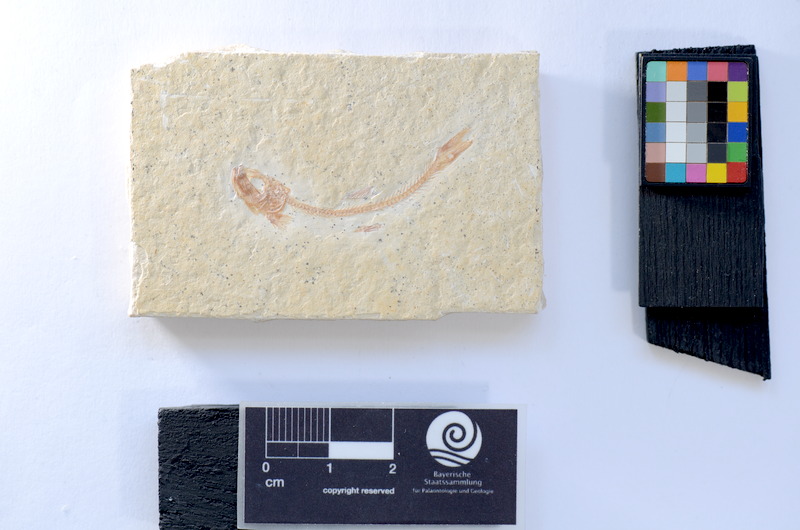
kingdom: Animalia
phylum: Chordata
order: Salmoniformes
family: Orthogonikleithridae
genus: Leptolepides
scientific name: Leptolepides sprattiformis
